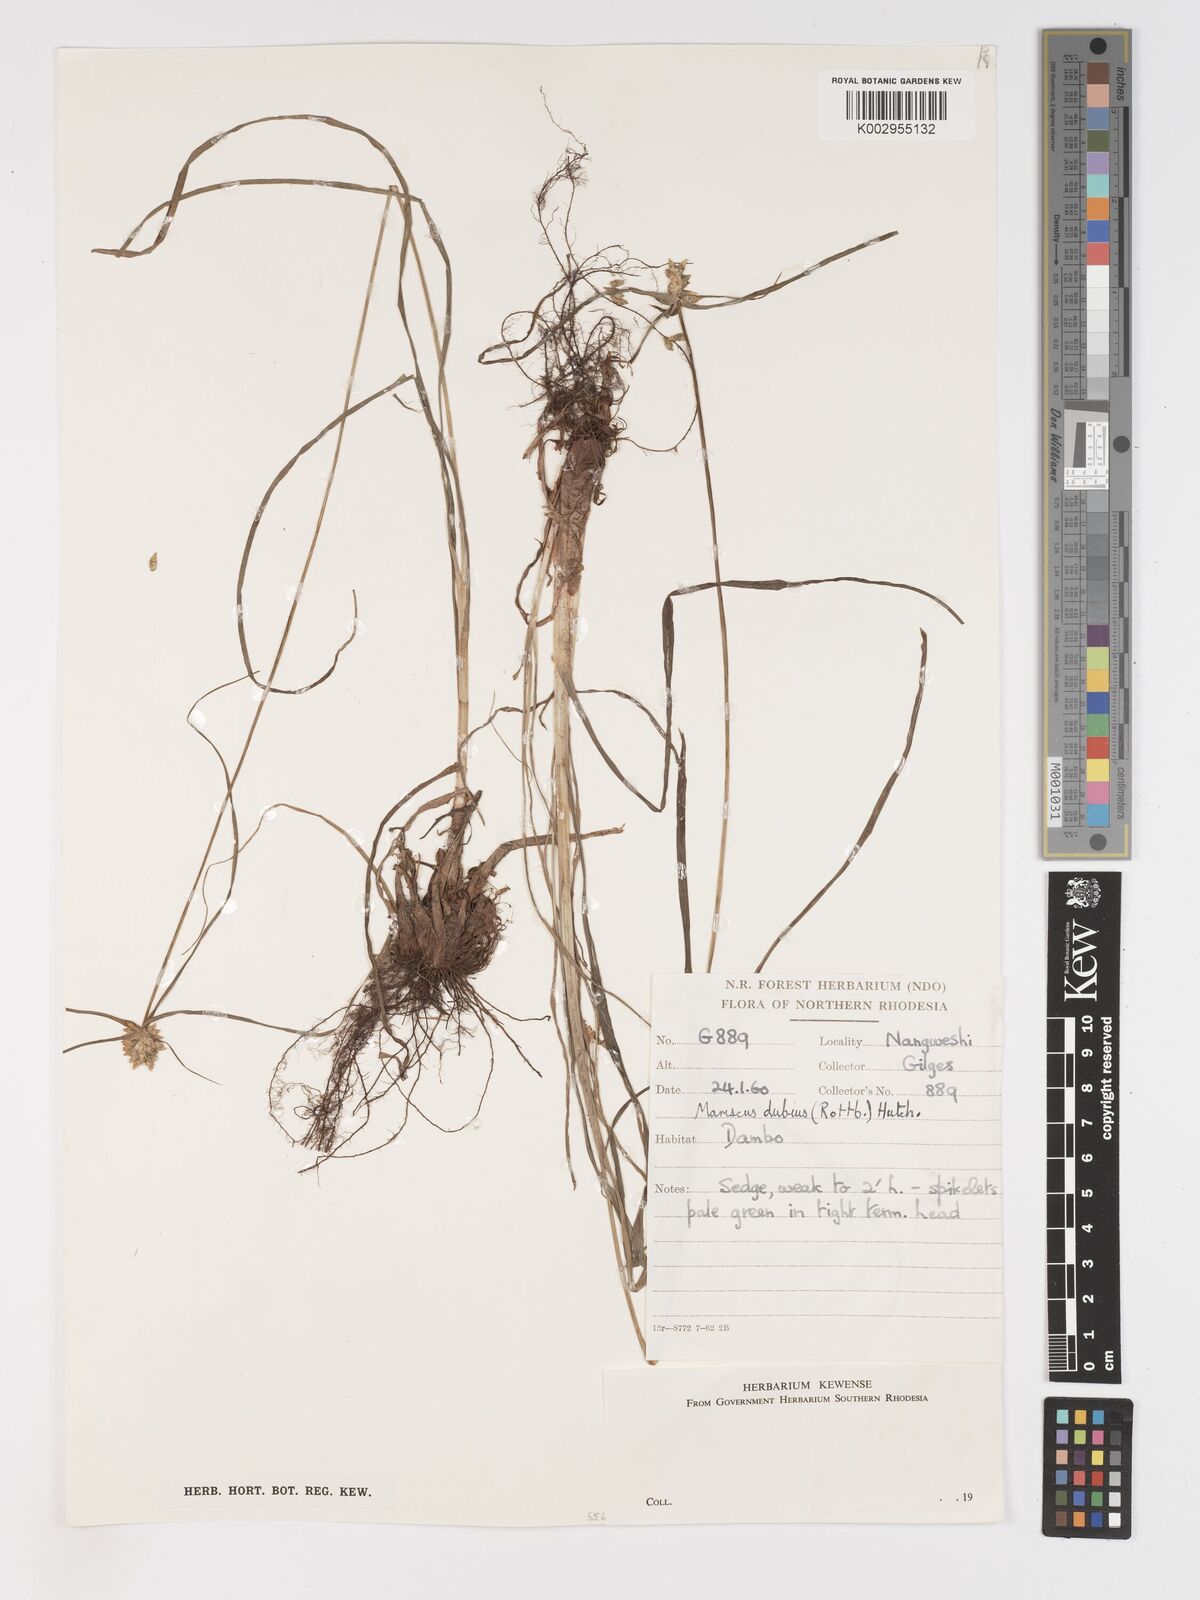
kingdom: Plantae
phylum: Tracheophyta
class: Liliopsida
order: Poales
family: Cyperaceae
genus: Cyperus
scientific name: Cyperus dubius
